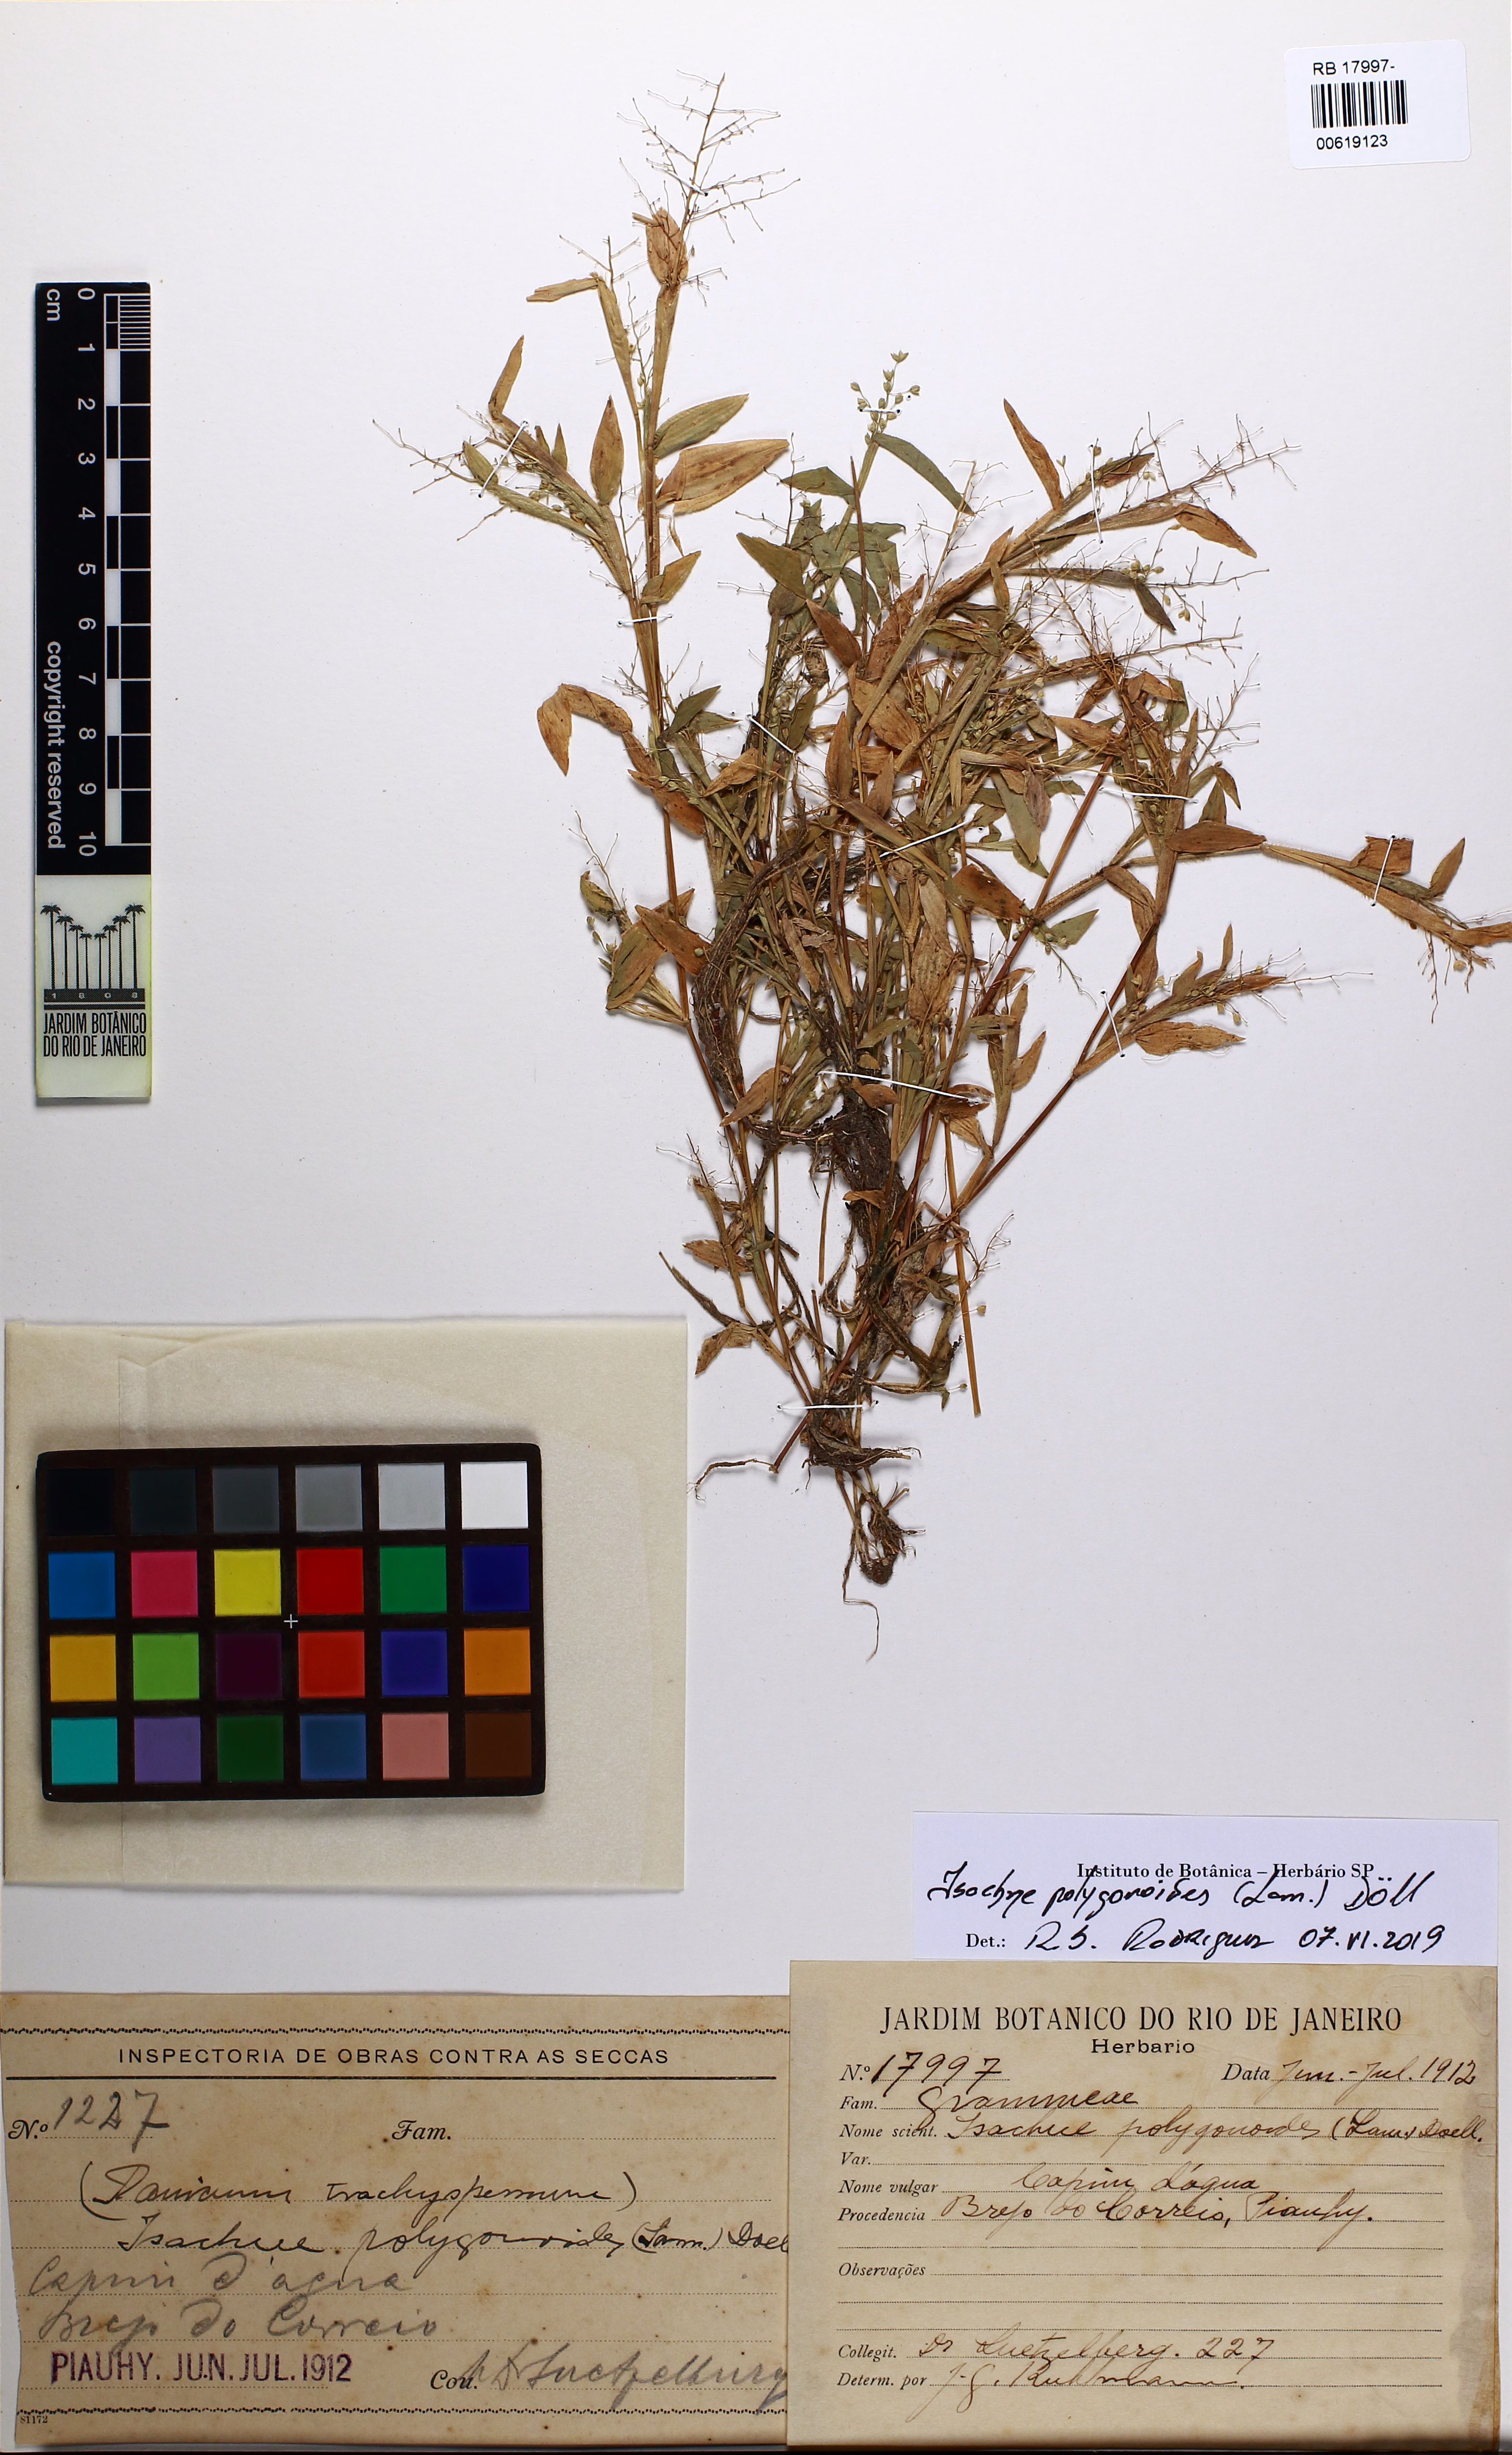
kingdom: Plantae
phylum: Tracheophyta
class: Liliopsida
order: Poales
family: Poaceae
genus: Isachne
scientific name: Isachne polygonoides
